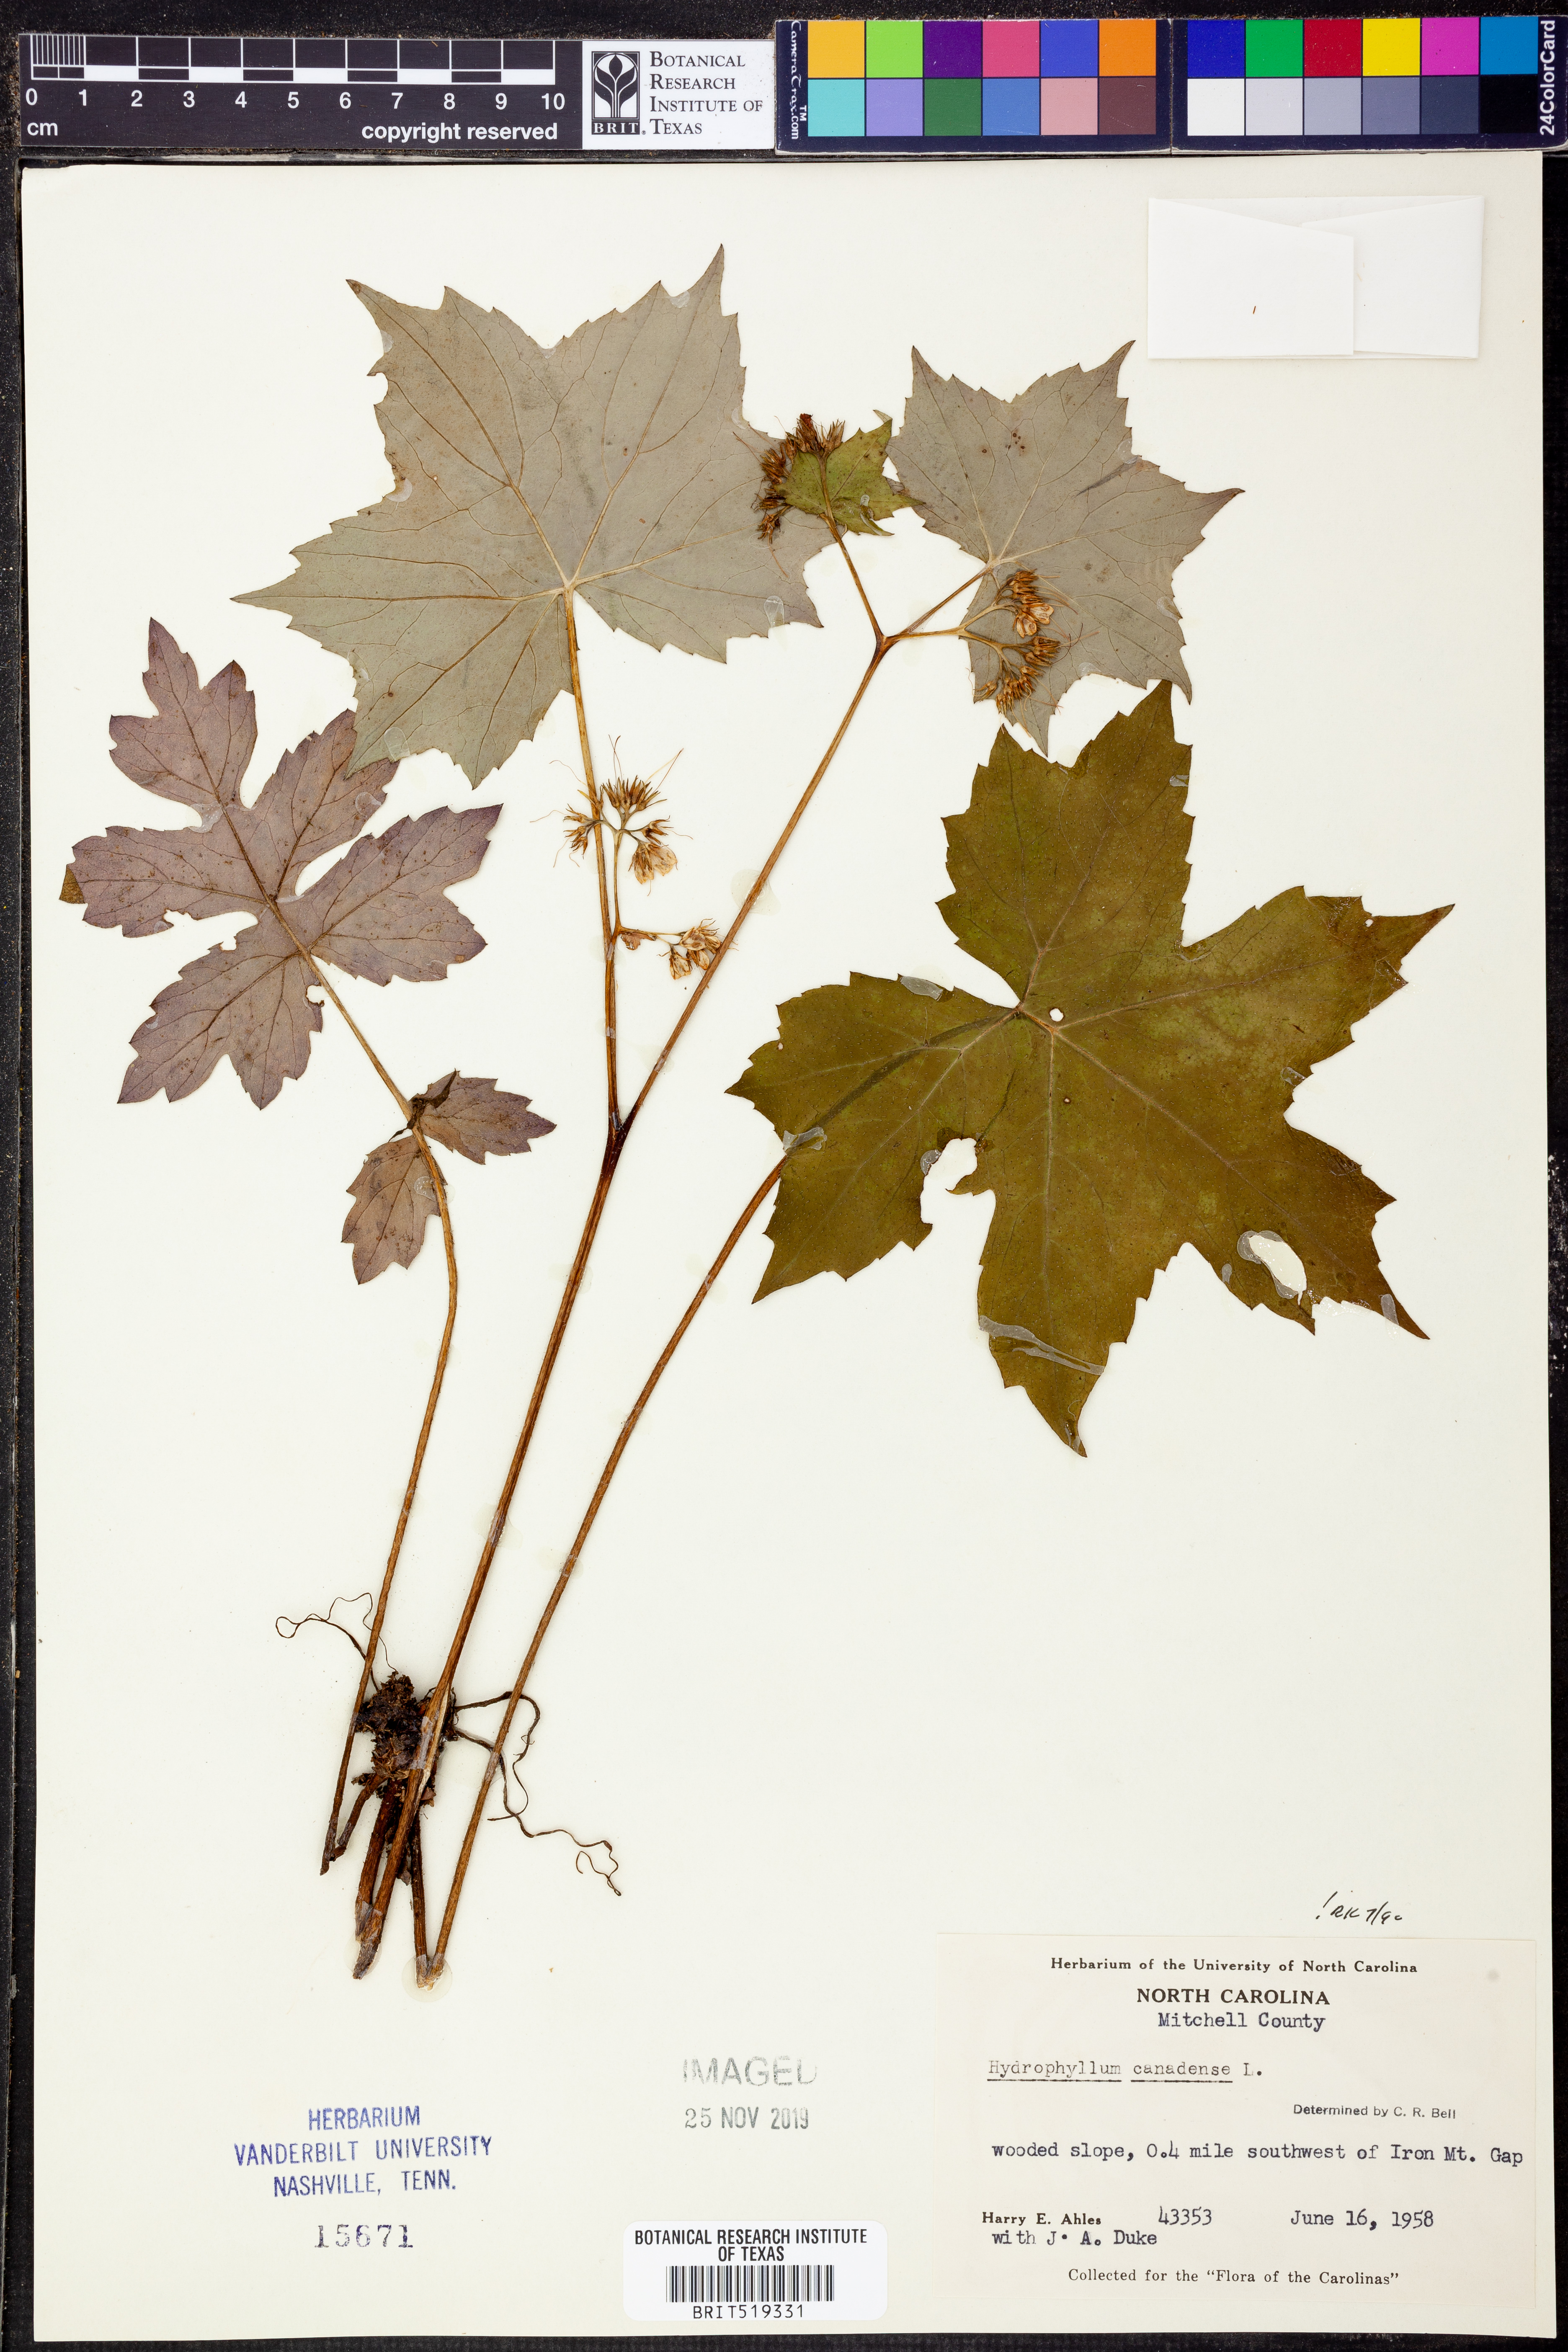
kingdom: Plantae
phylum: Tracheophyta
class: Magnoliopsida
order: Boraginales
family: Hydrophyllaceae
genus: Hydrophyllum
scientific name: Hydrophyllum canadense
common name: Canada waterleaf
